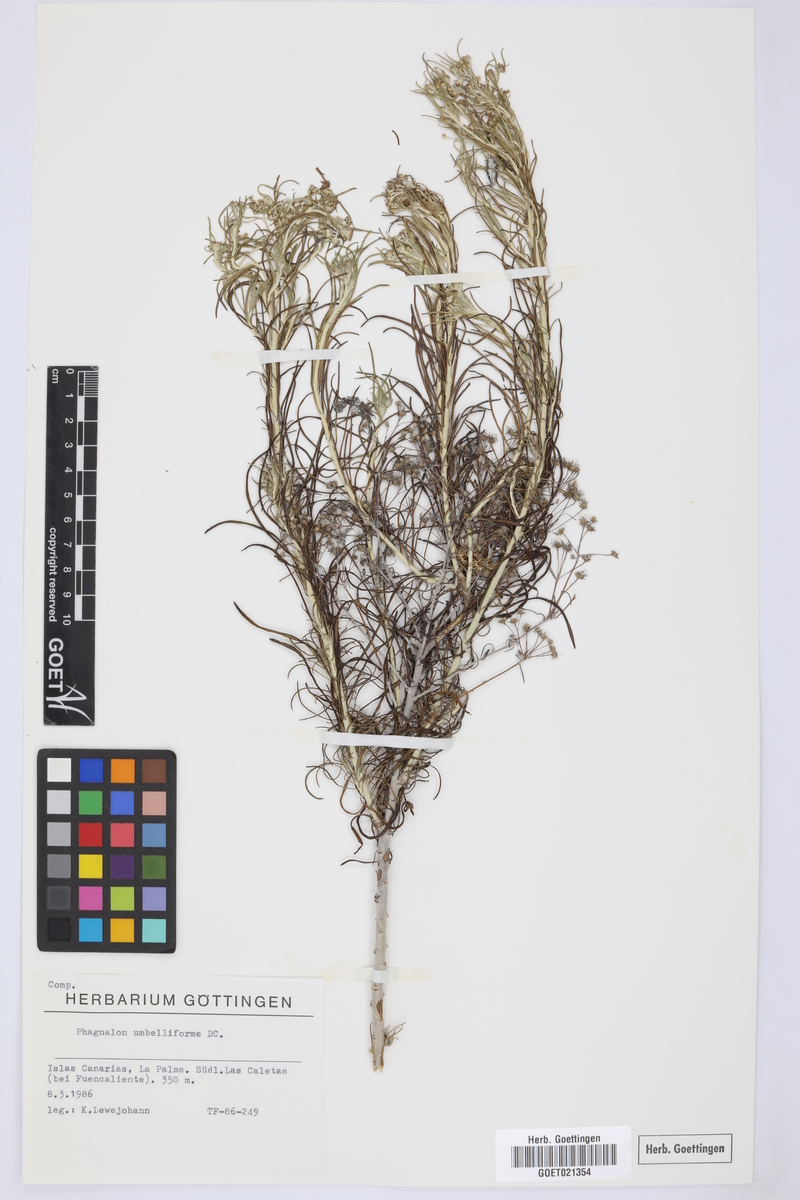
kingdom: Plantae
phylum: Tracheophyta
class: Magnoliopsida
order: Asterales
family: Asteraceae
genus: Phagnalon
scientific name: Phagnalon umbelliforme
